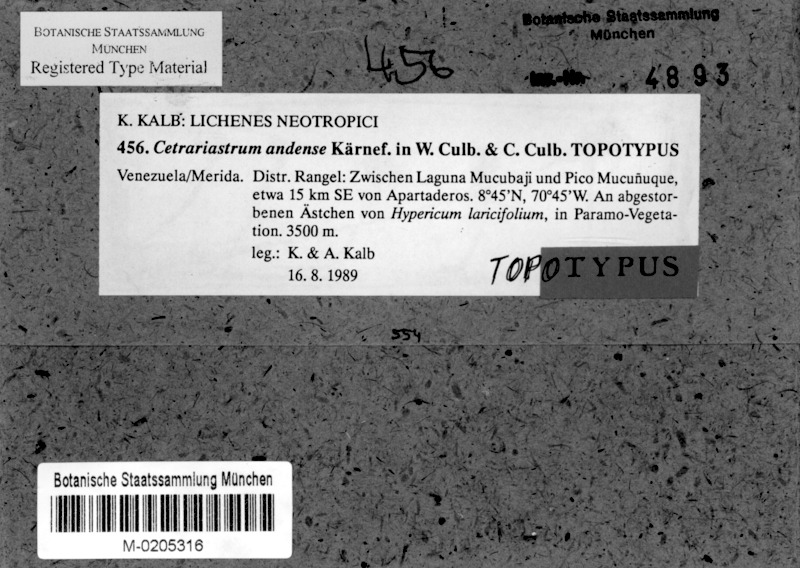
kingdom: Fungi
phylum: Ascomycota
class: Lecanoromycetes
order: Lecanorales
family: Parmeliaceae
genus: Hypotrachyna
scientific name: Hypotrachyna kaernefeltii
